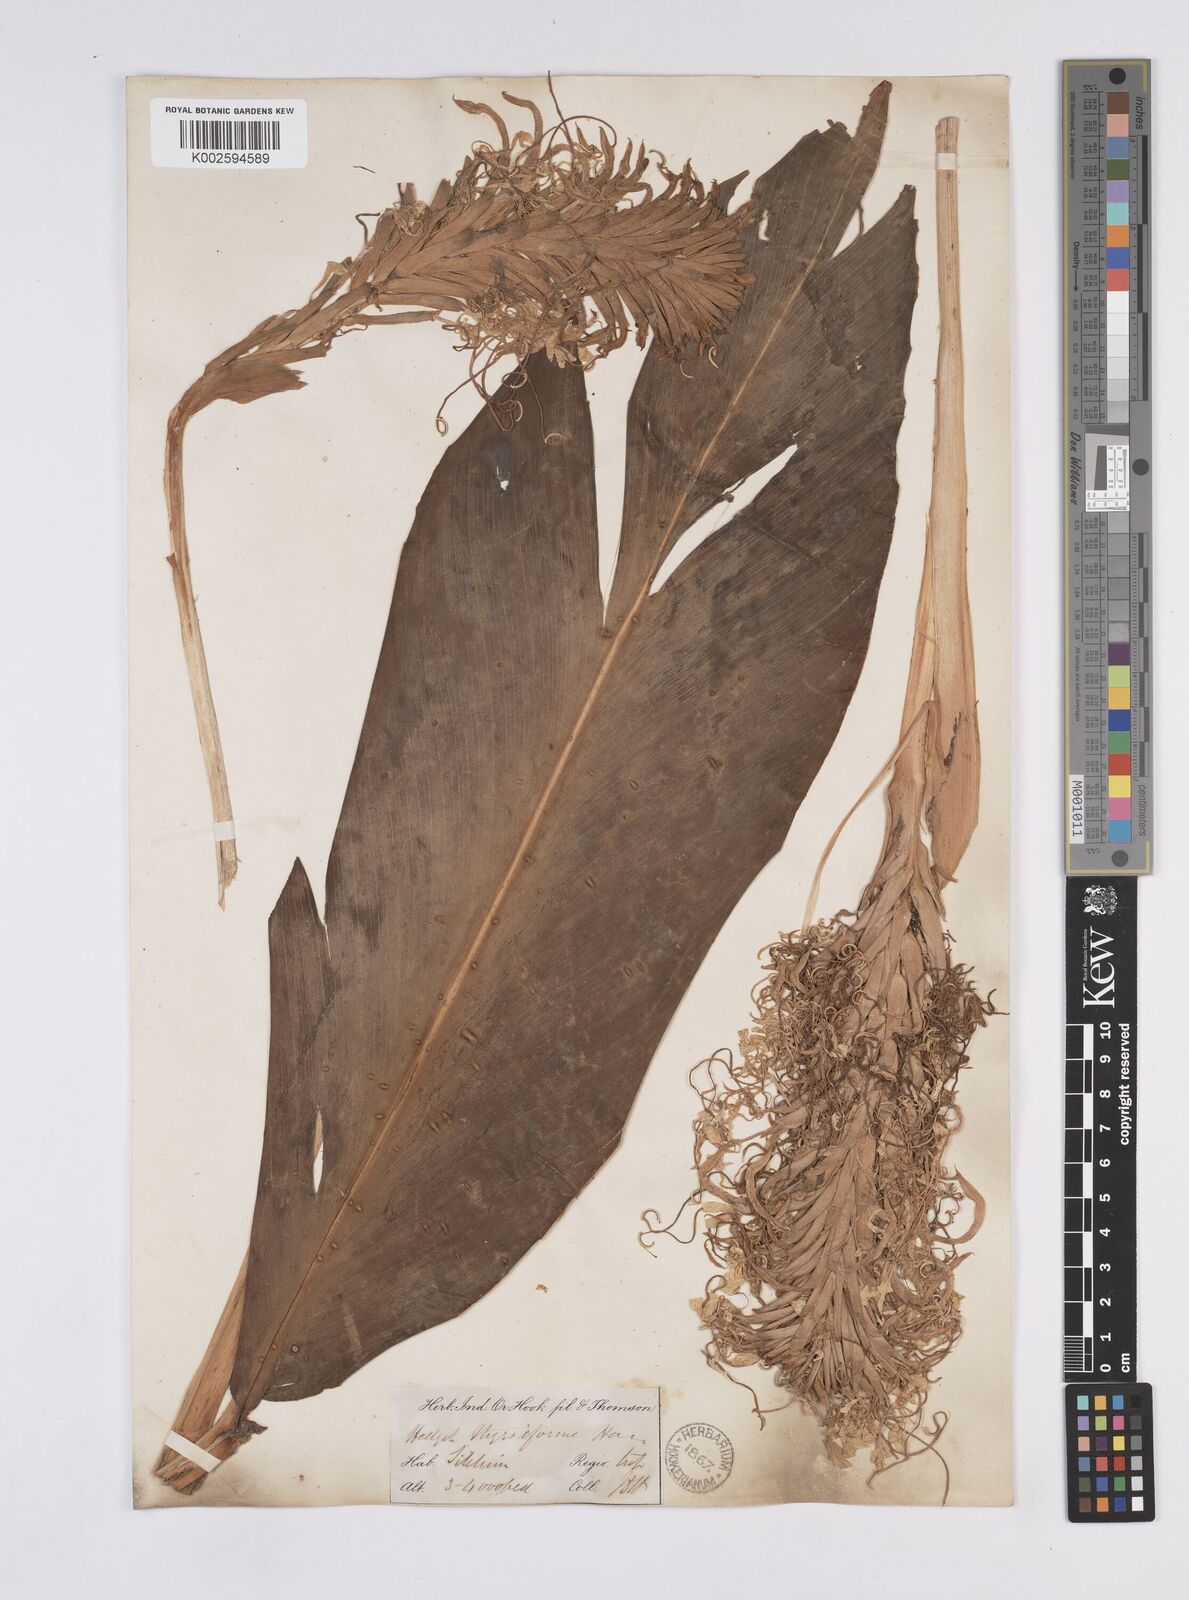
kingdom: Plantae
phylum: Tracheophyta
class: Liliopsida
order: Zingiberales
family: Zingiberaceae
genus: Hedychium
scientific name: Hedychium thyrsiforme
